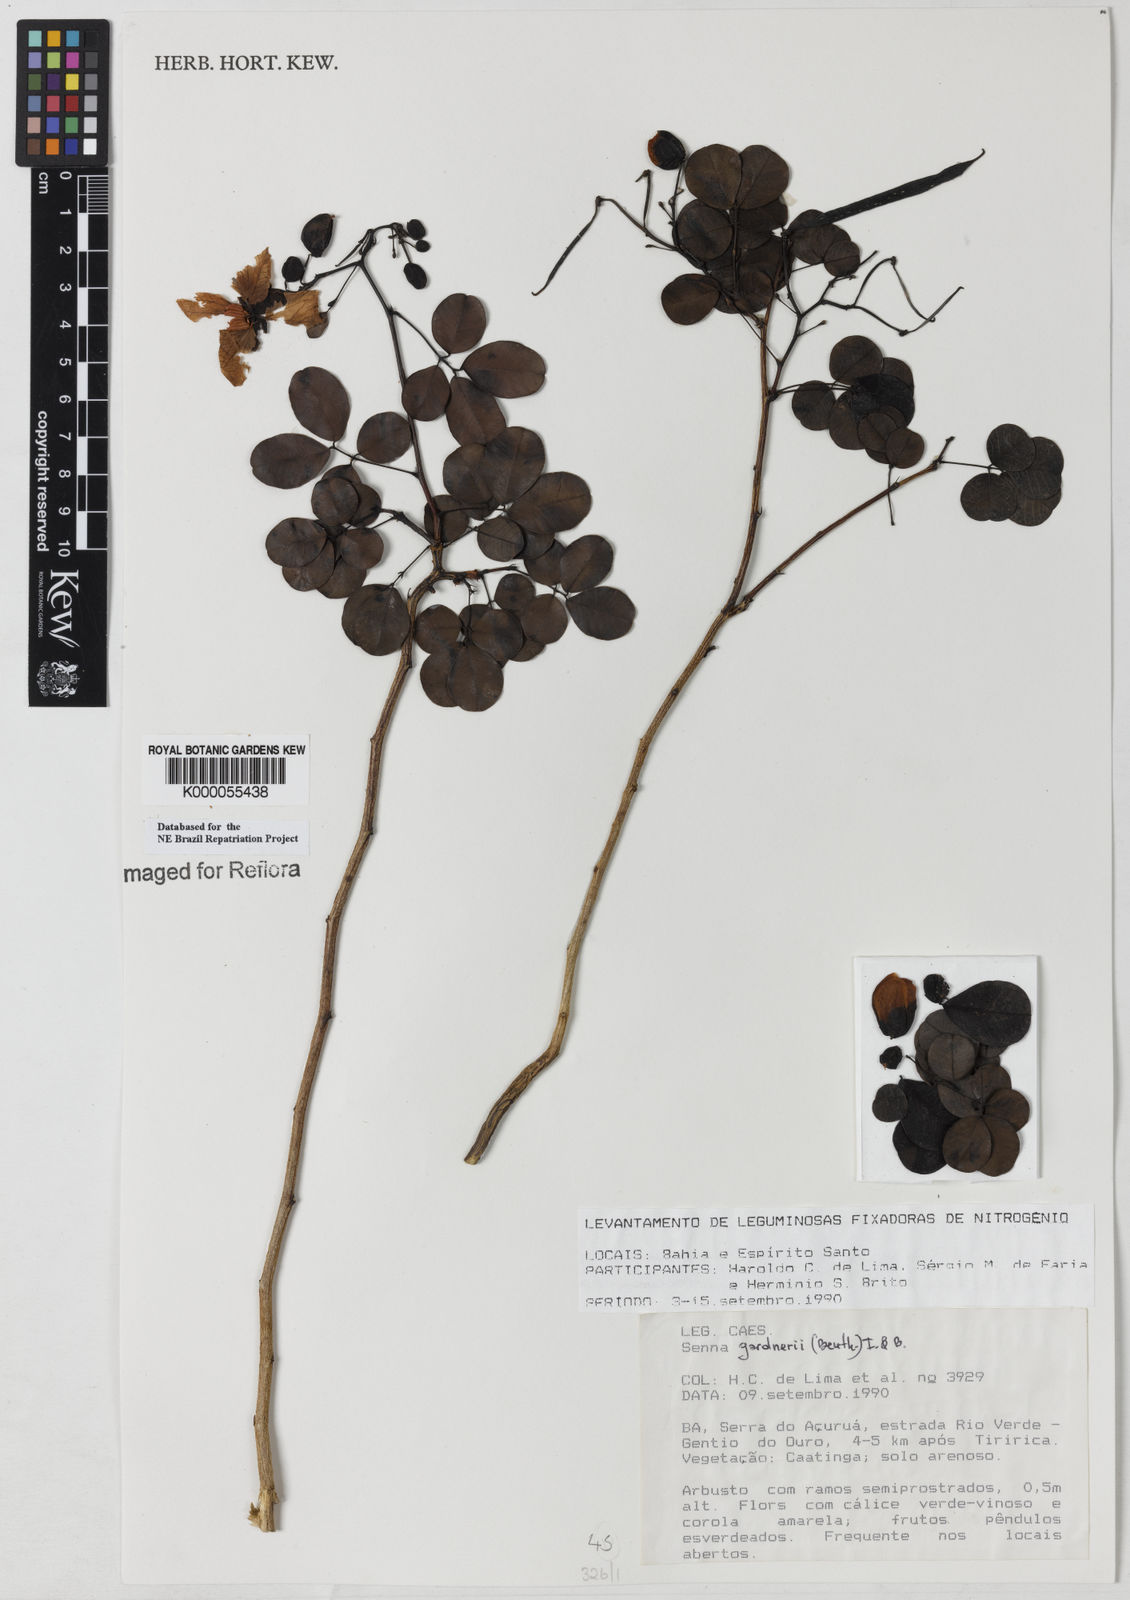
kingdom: Plantae
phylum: Tracheophyta
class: Magnoliopsida
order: Fabales
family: Fabaceae
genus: Senna
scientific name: Senna gardneri
